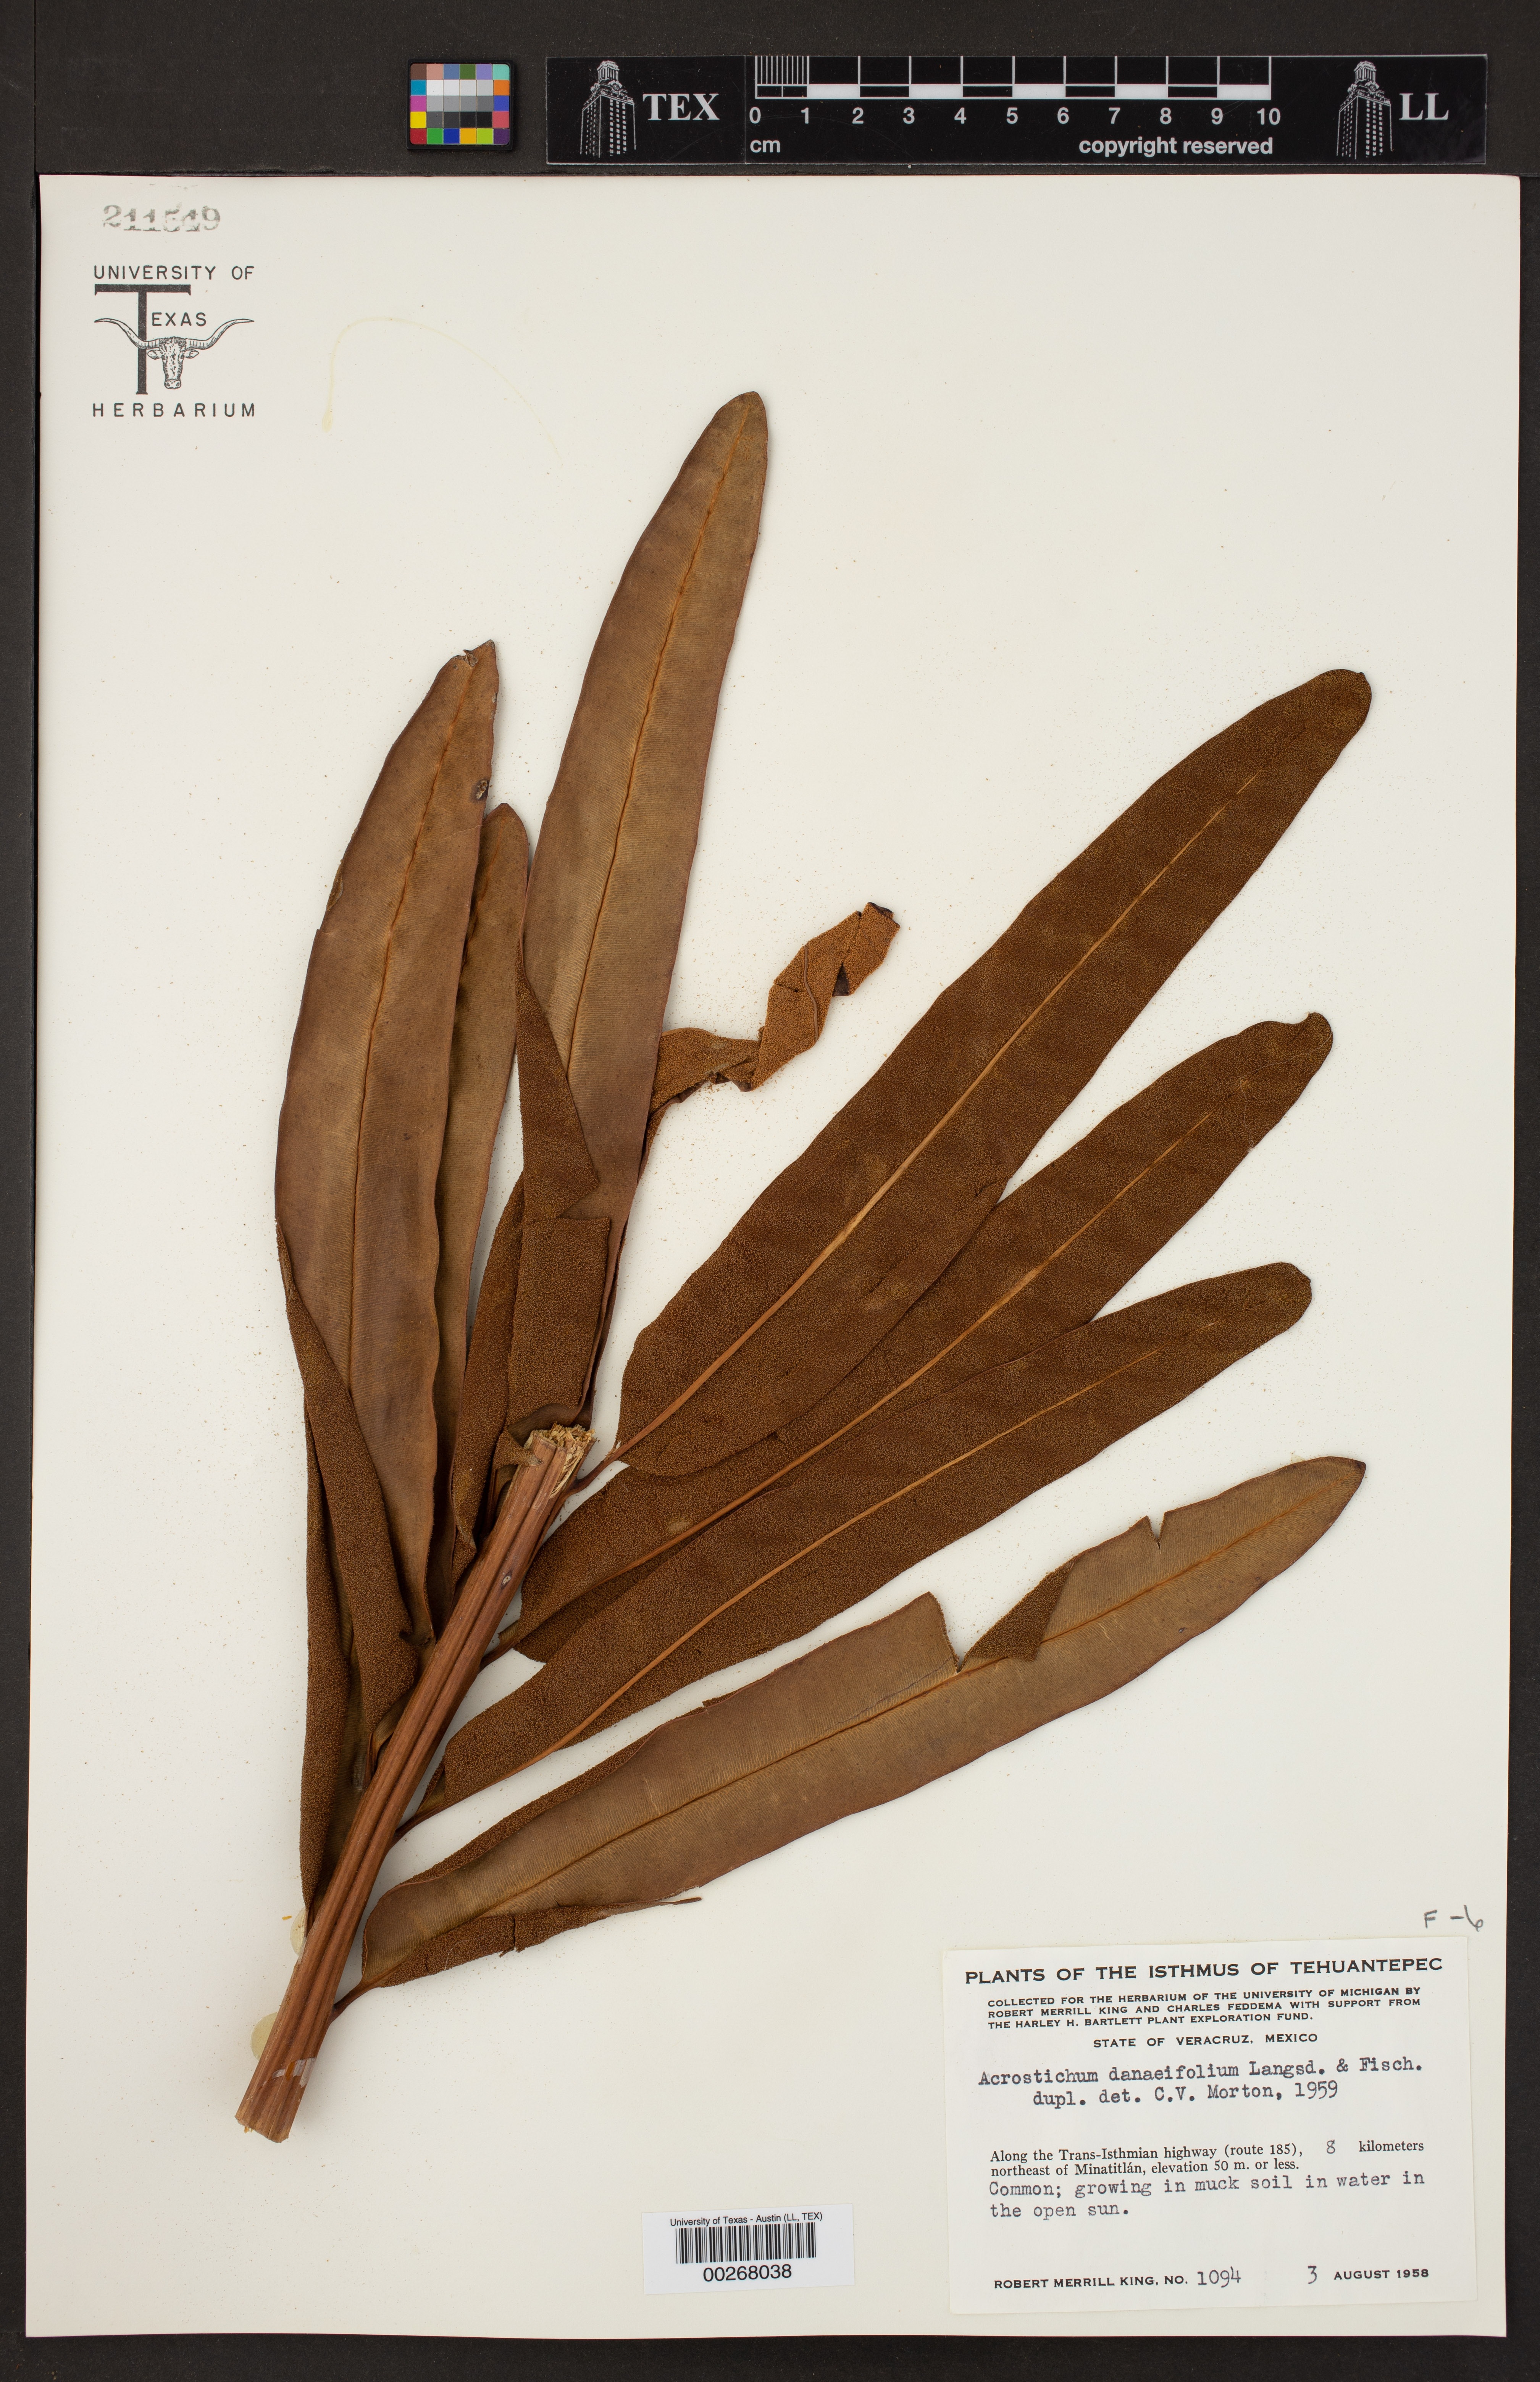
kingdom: Plantae
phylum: Tracheophyta
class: Polypodiopsida
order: Polypodiales
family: Pteridaceae
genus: Acrostichum
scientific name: Acrostichum danaeifolium
